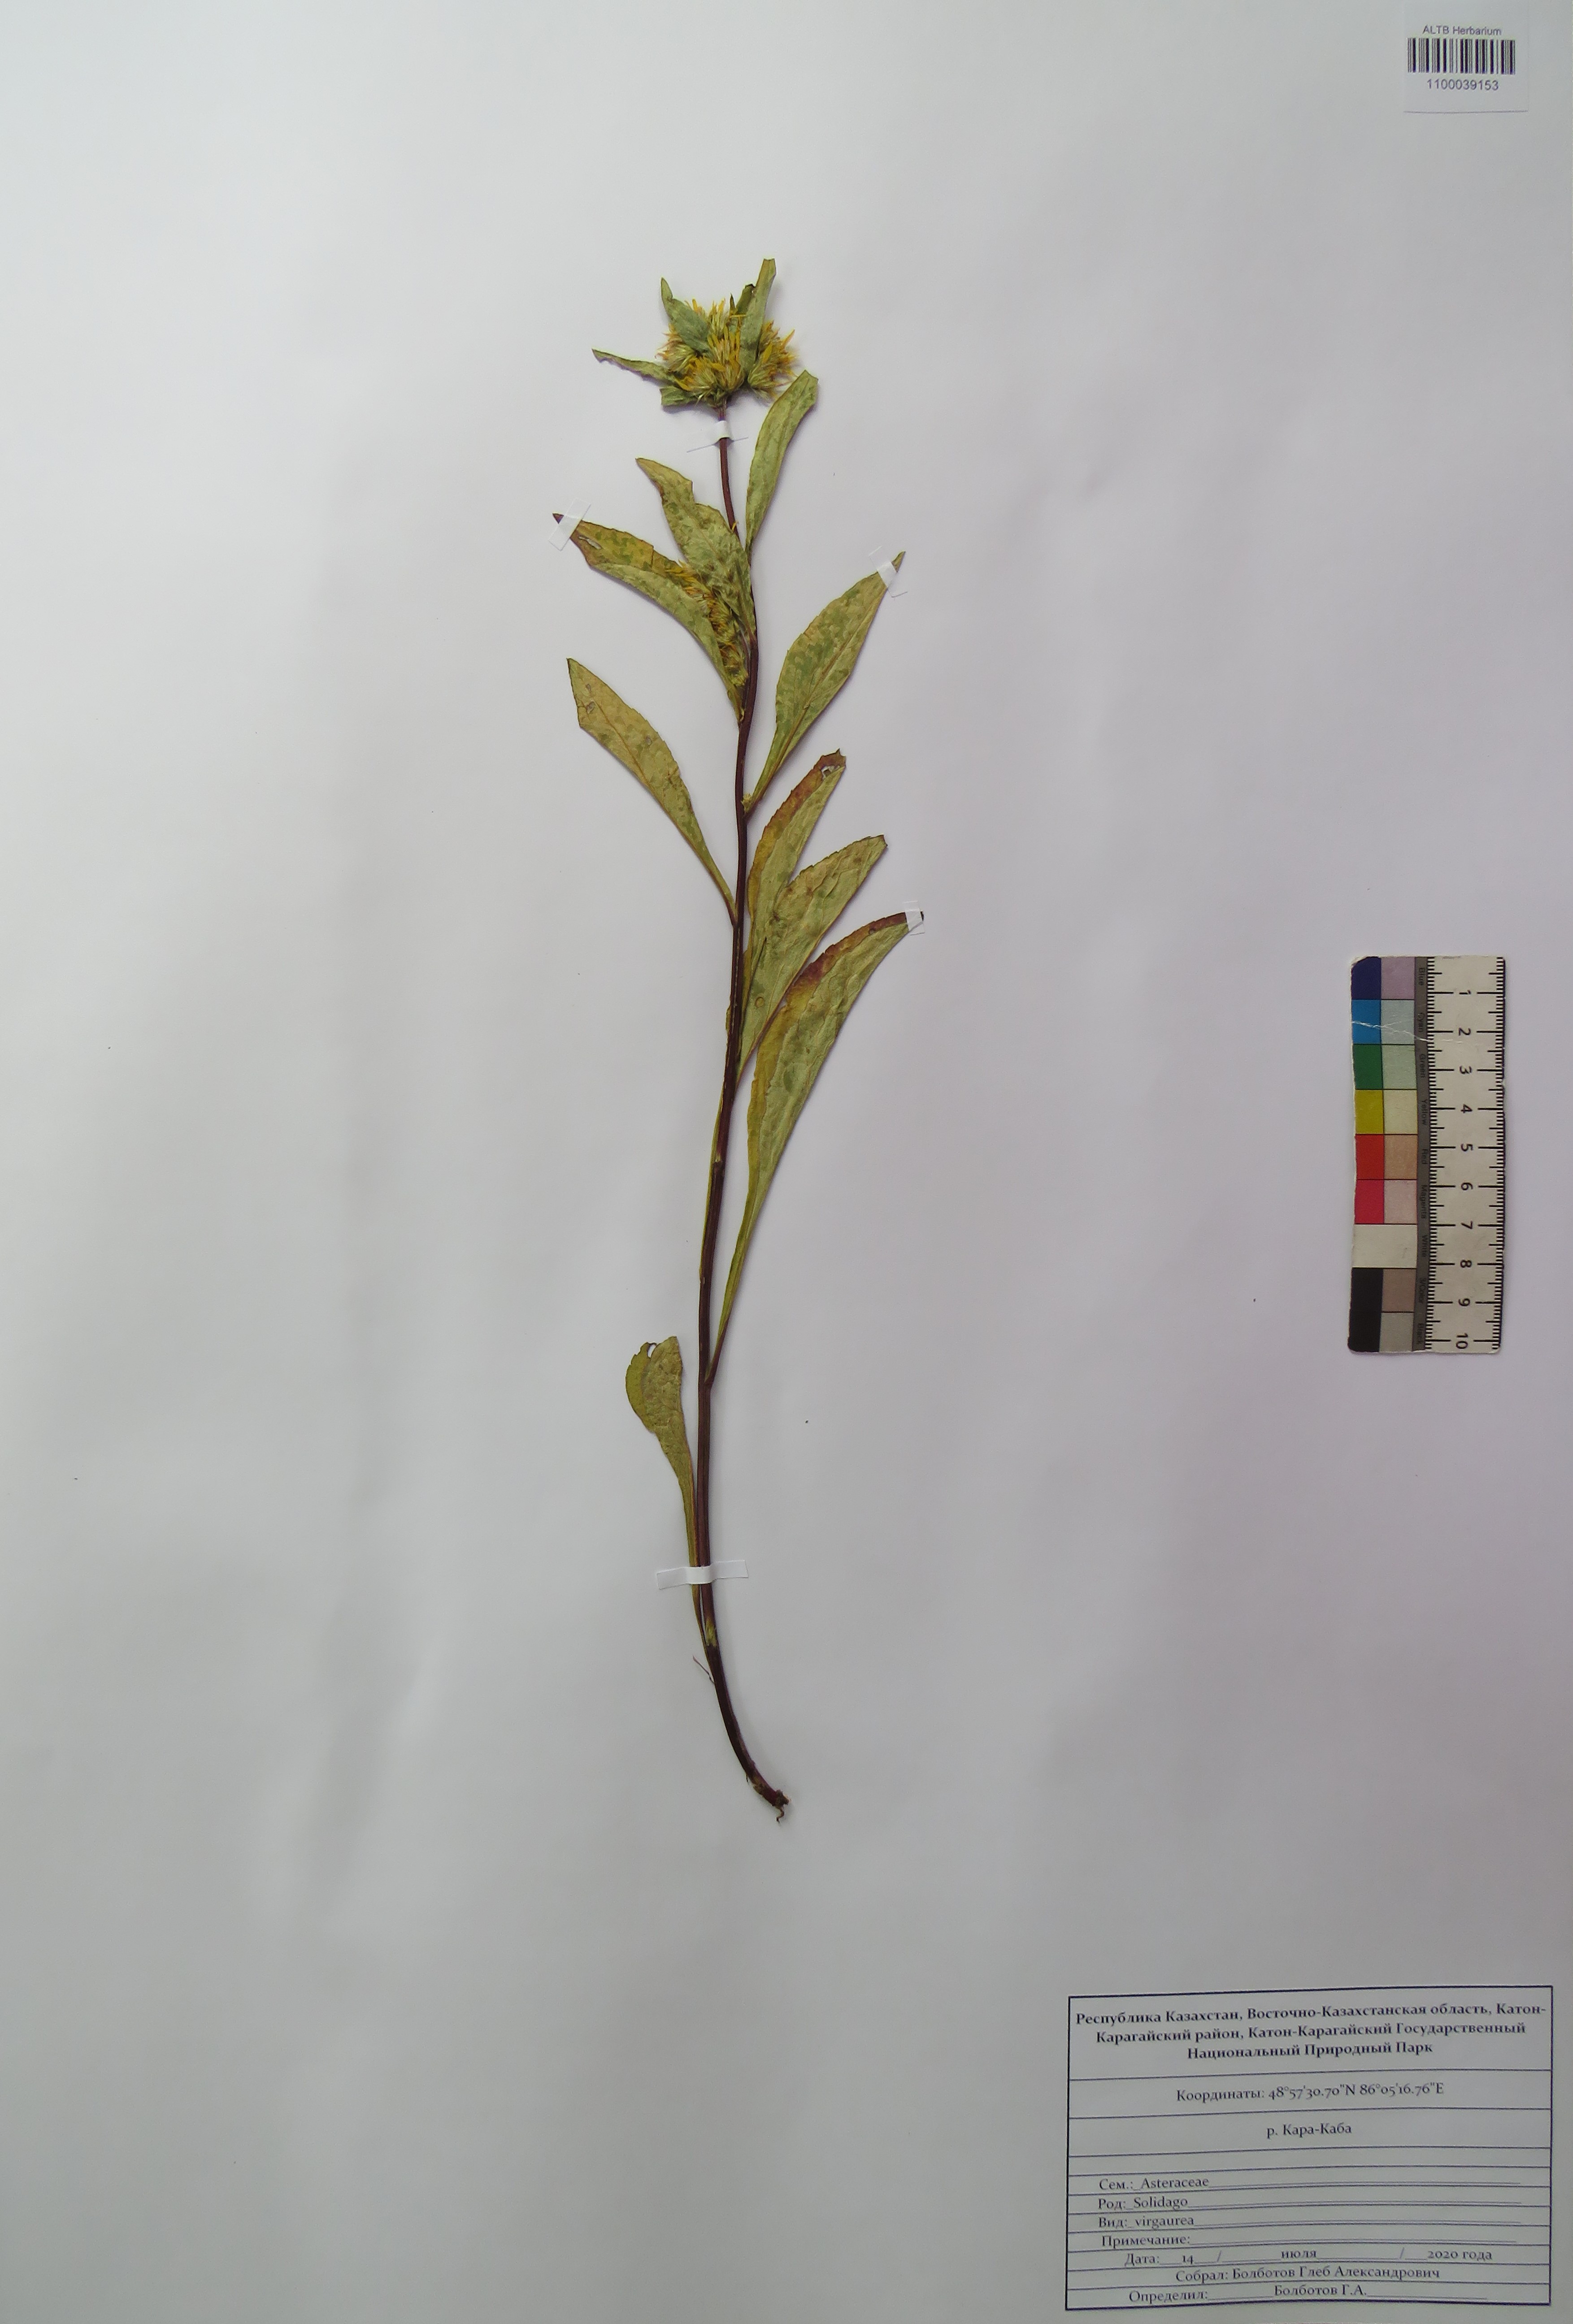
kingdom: Plantae
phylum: Tracheophyta
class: Magnoliopsida
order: Asterales
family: Asteraceae
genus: Solidago
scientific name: Solidago virgaurea
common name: Goldenrod
